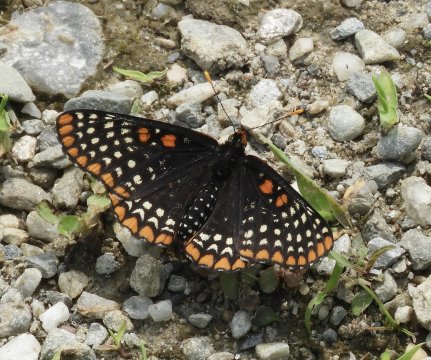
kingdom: Animalia
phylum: Arthropoda
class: Insecta
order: Lepidoptera
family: Nymphalidae
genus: Euphydryas
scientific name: Euphydryas phaeton
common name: Baltimore Checkerspot
